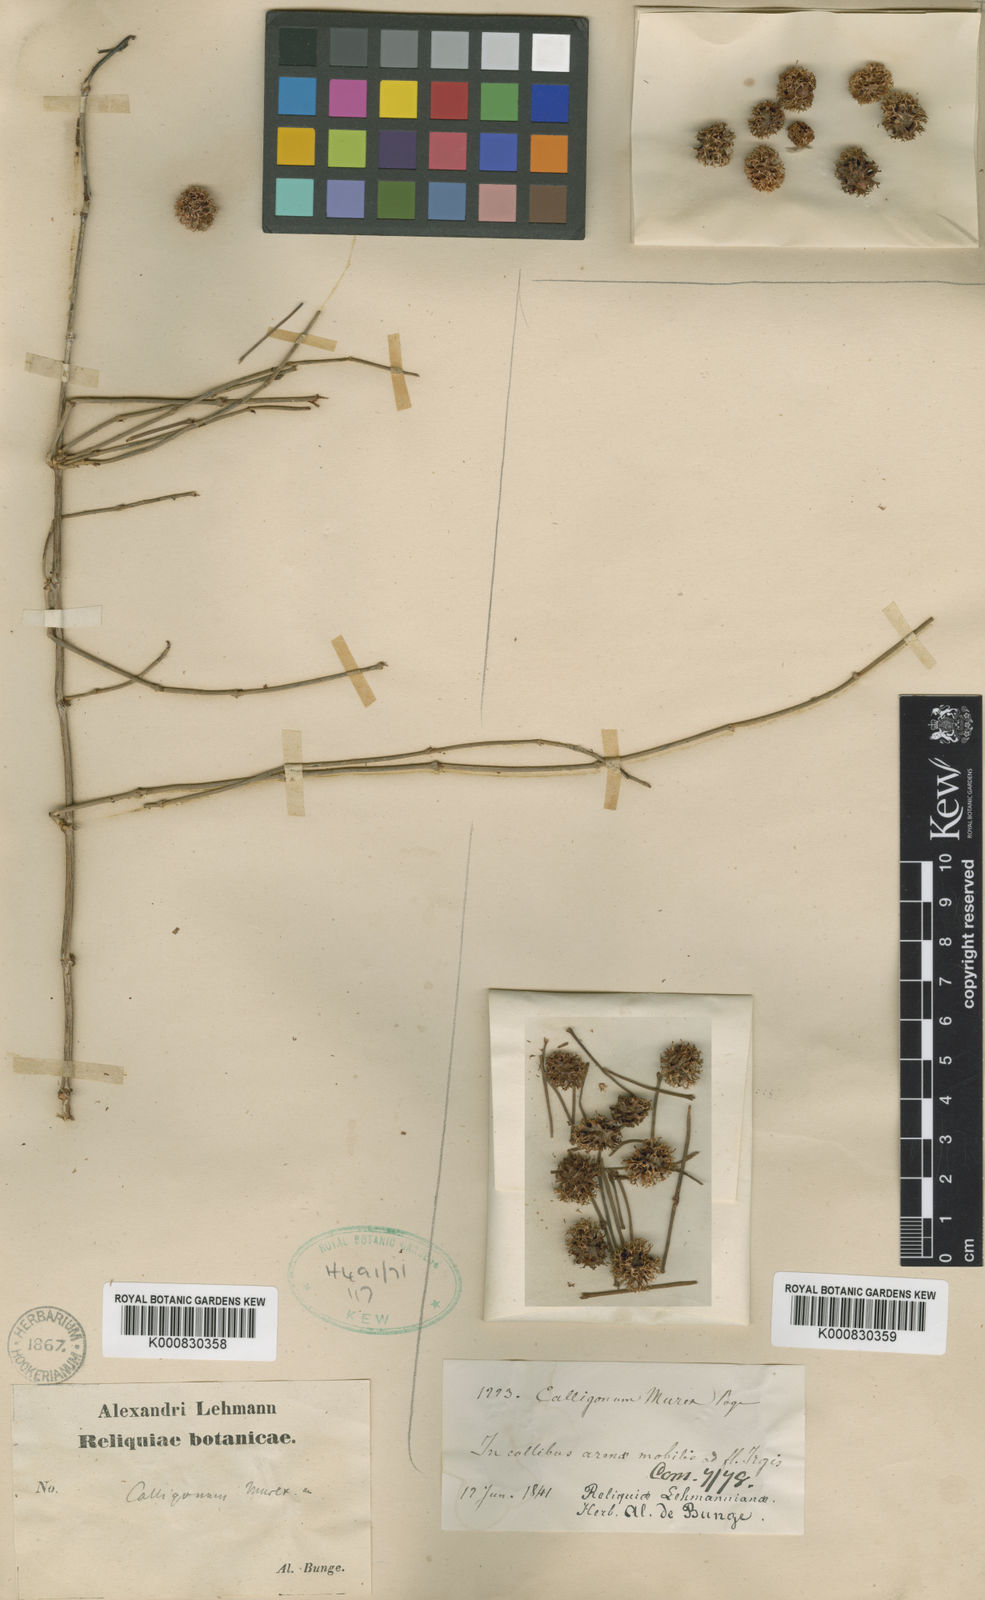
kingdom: Plantae
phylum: Tracheophyta
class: Magnoliopsida
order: Caryophyllales
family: Polygonaceae
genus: Calligonum
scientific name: Calligonum murex
